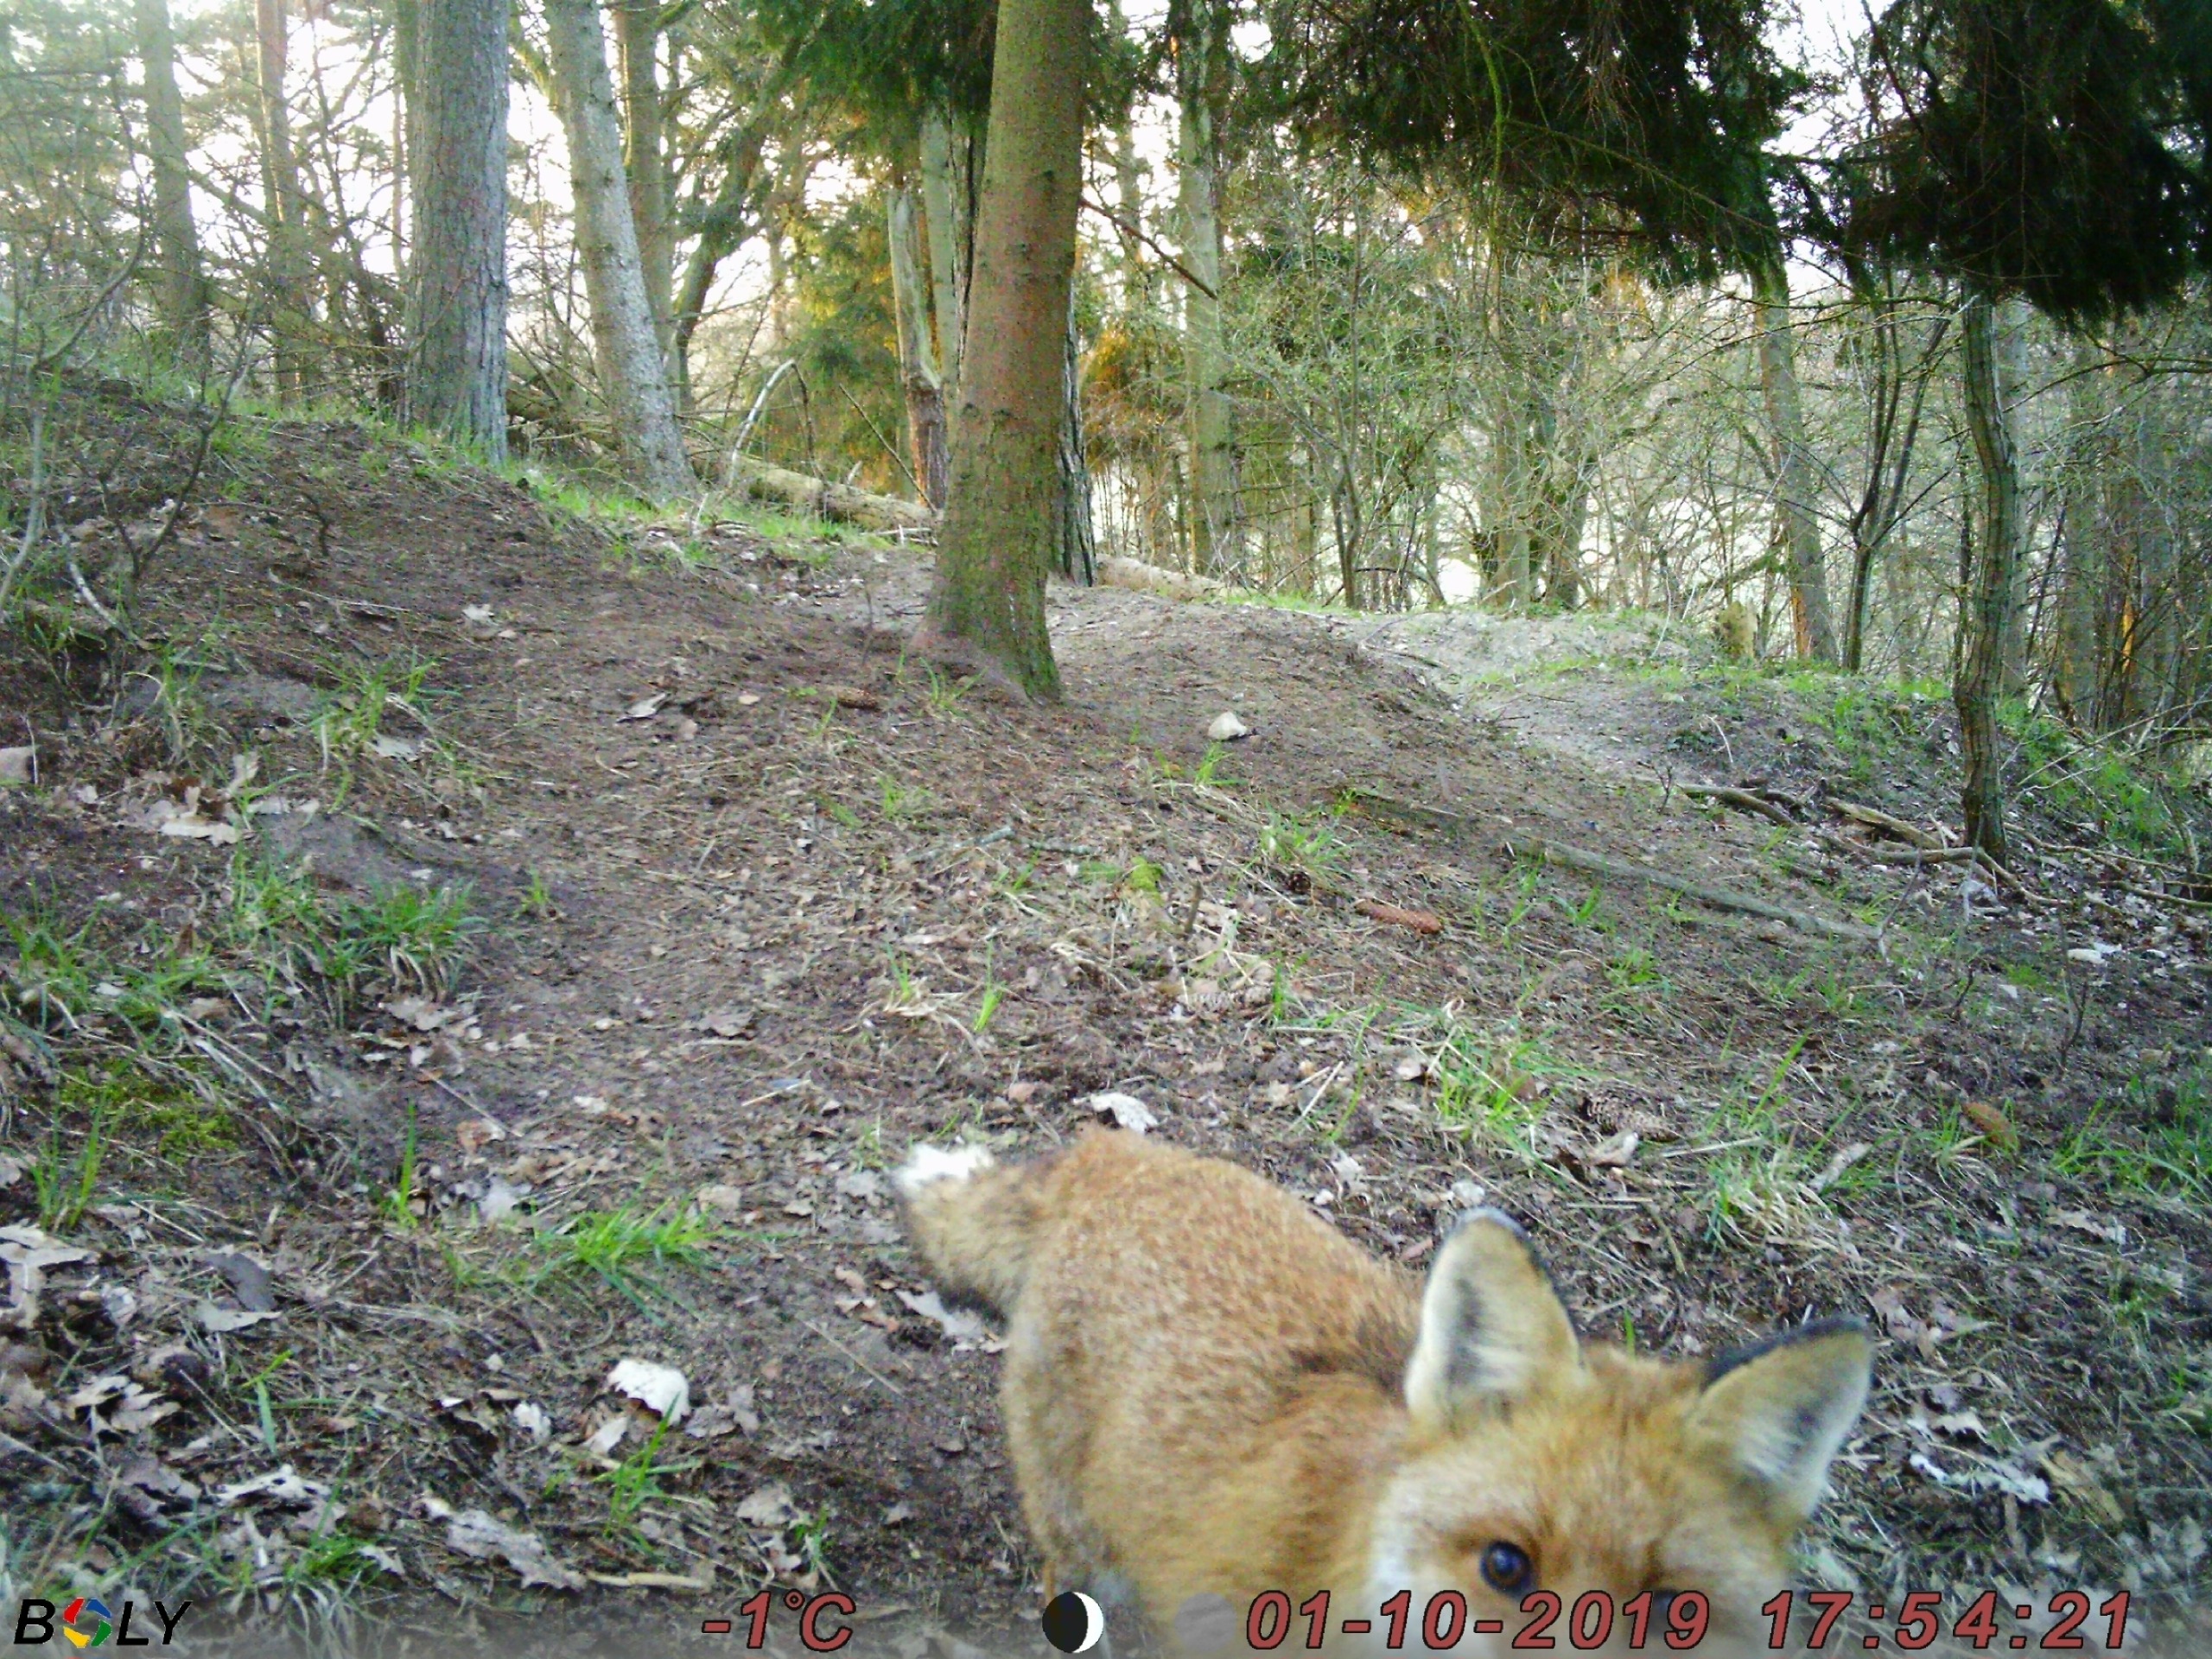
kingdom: Animalia
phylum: Chordata
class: Mammalia
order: Carnivora
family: Canidae
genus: Vulpes
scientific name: Vulpes vulpes
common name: Ræv
